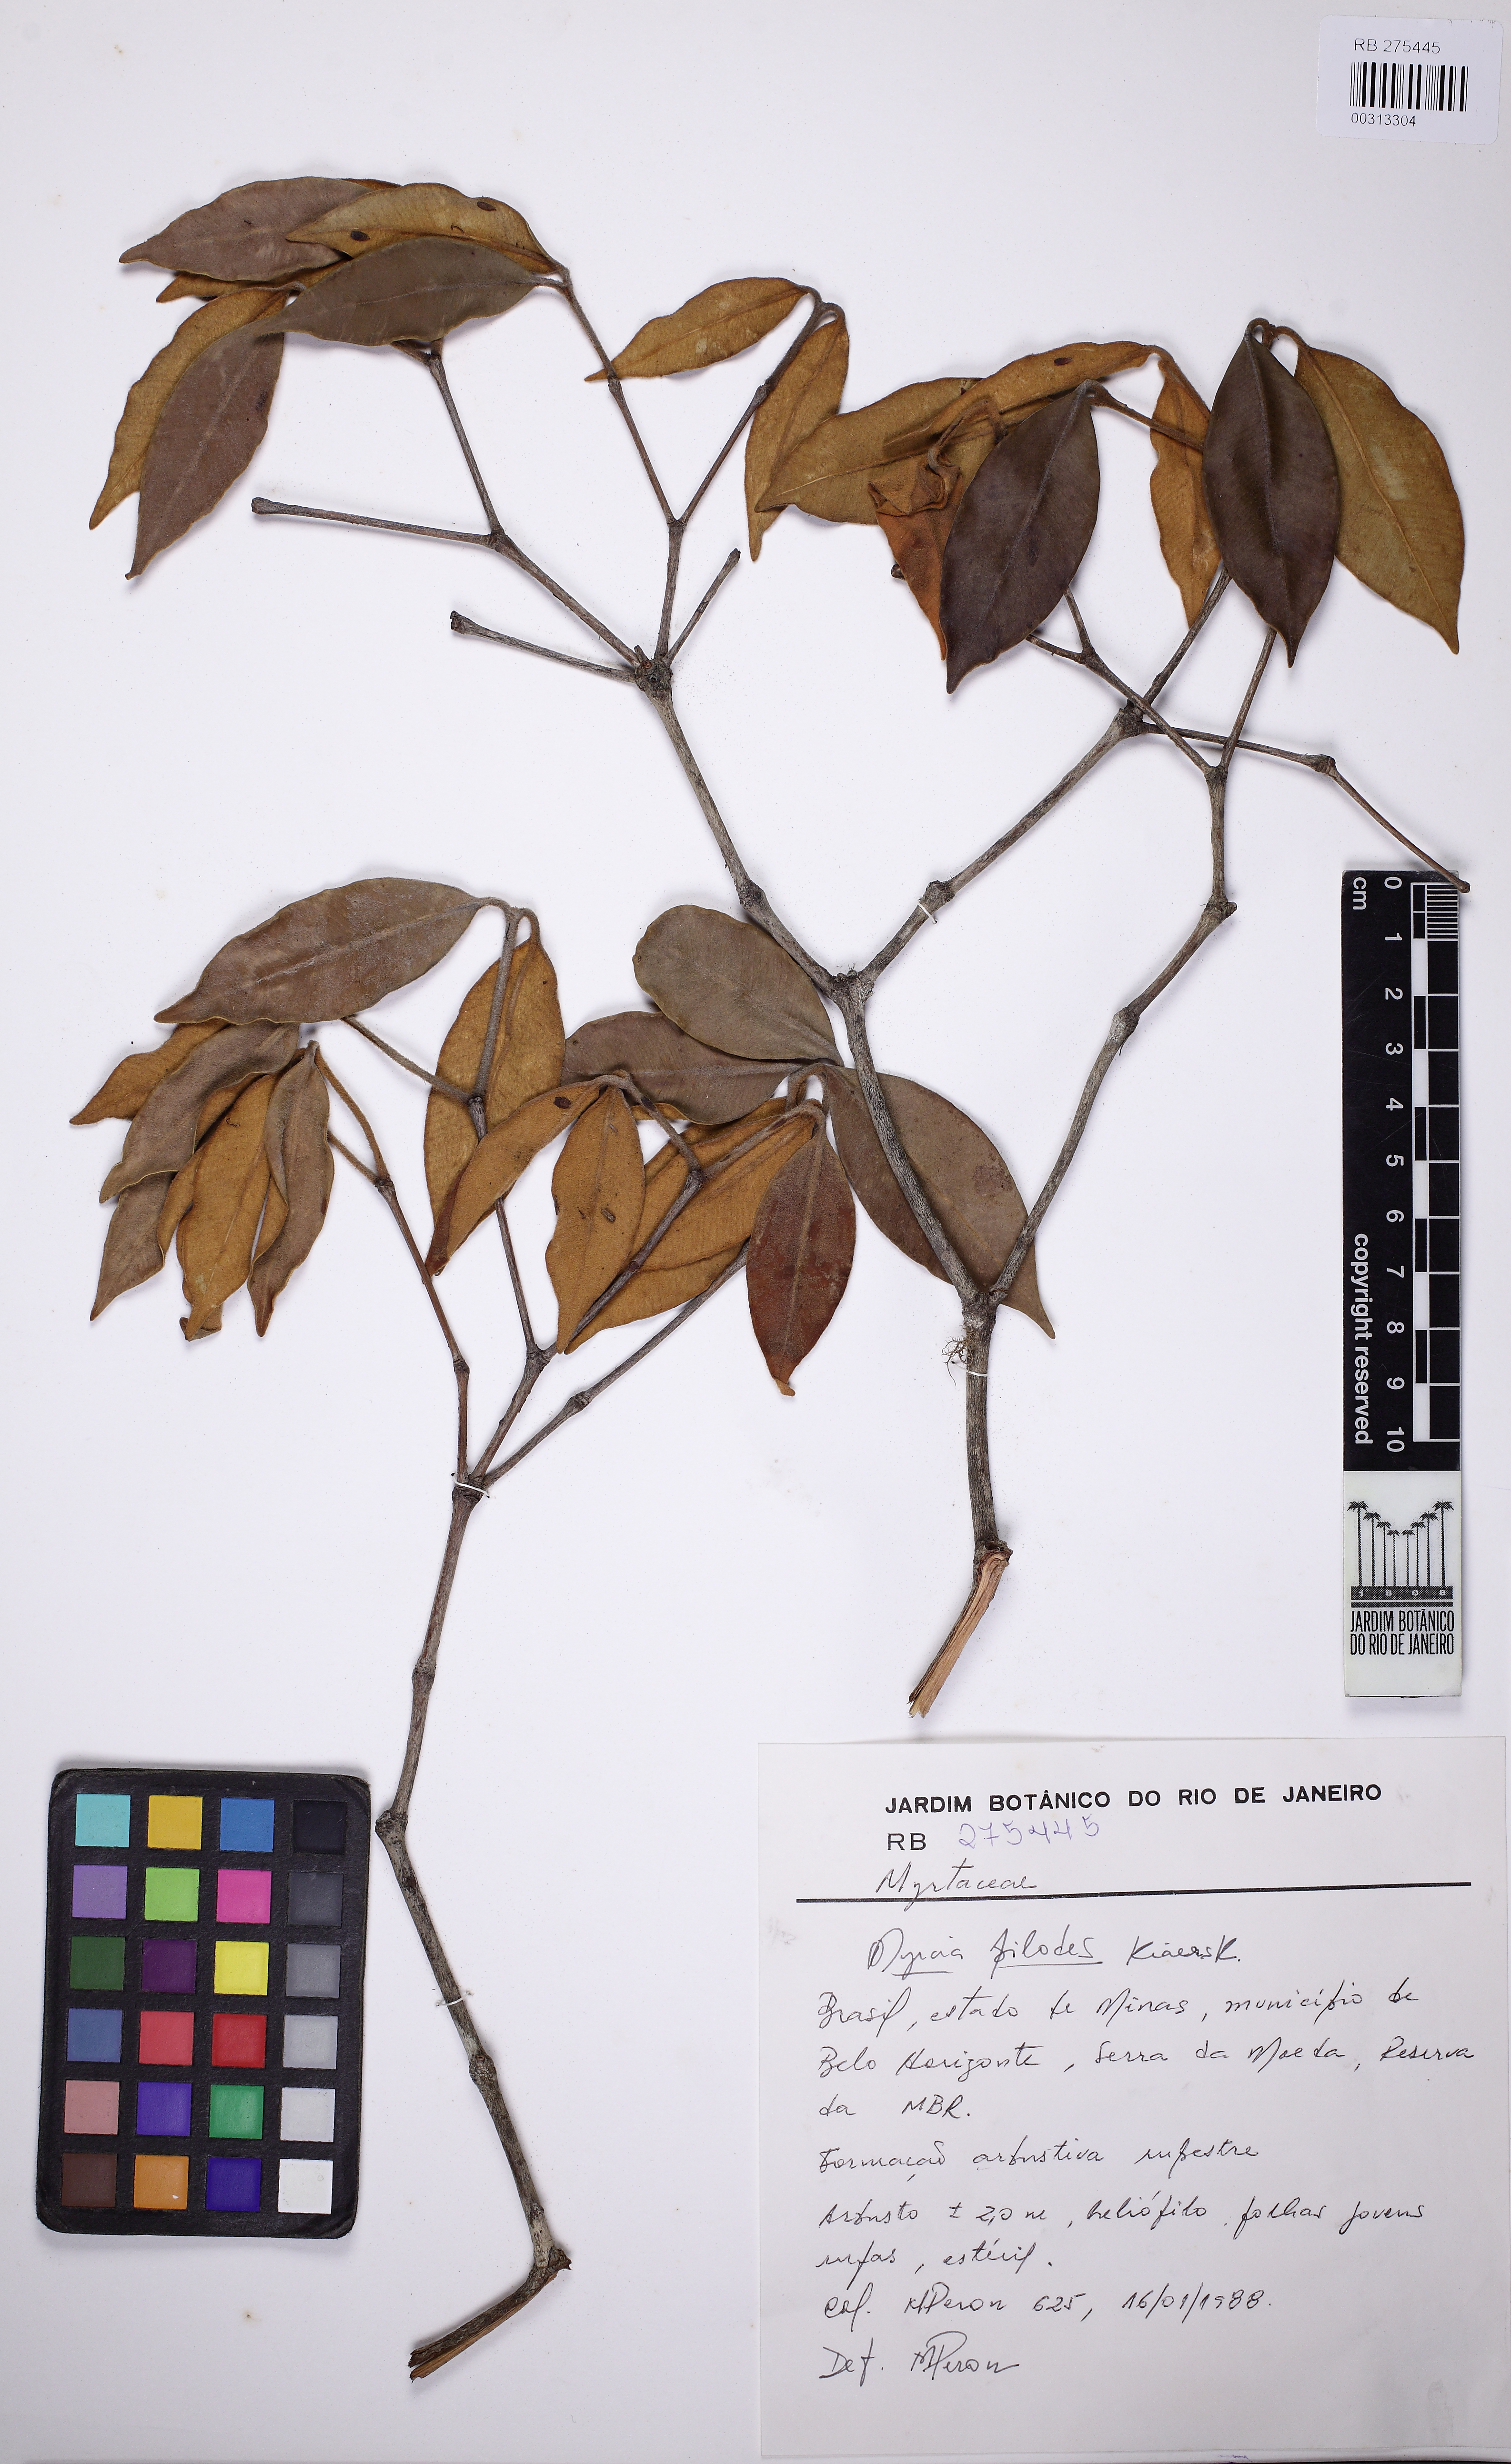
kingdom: Plantae
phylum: Tracheophyta
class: Magnoliopsida
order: Myrtales
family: Myrtaceae
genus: Myrcia
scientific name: Myrcia mutabilis
